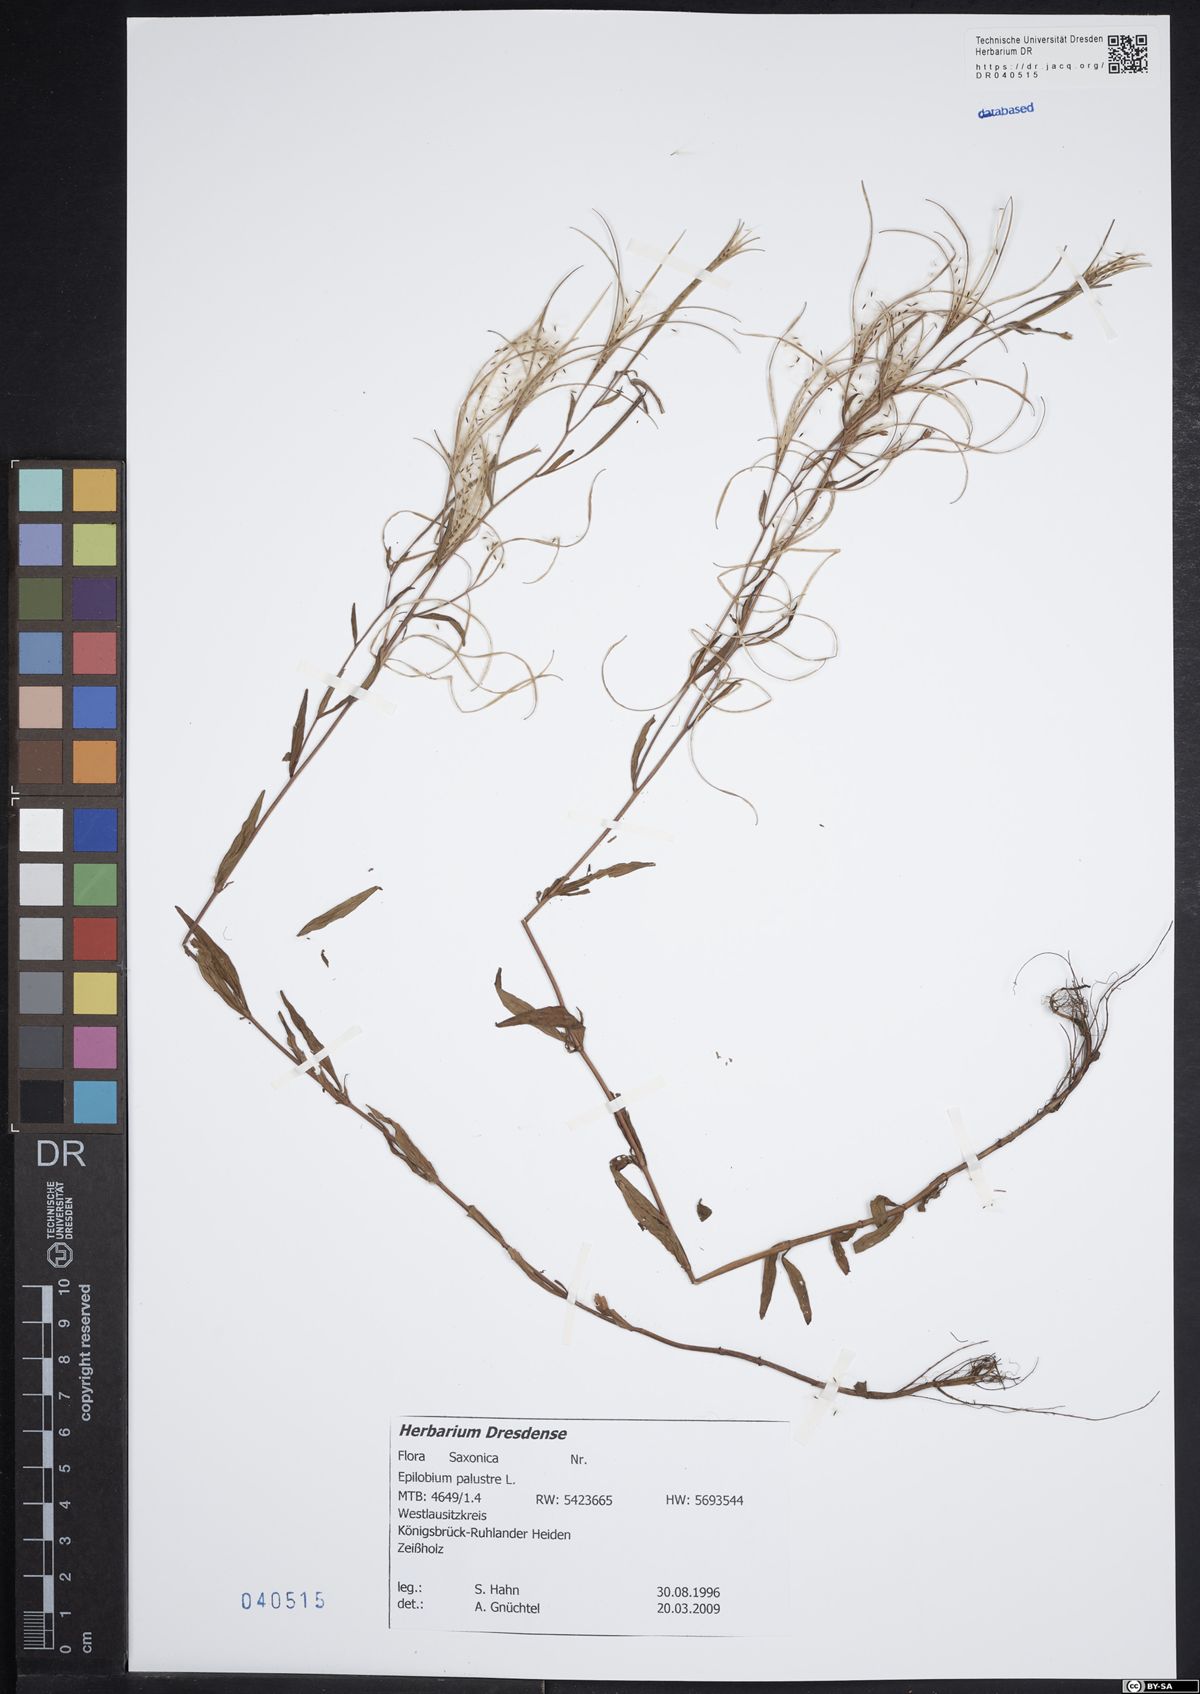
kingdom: Plantae
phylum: Tracheophyta
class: Magnoliopsida
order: Myrtales
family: Onagraceae
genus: Epilobium
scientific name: Epilobium palustre
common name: Marsh willowherb
